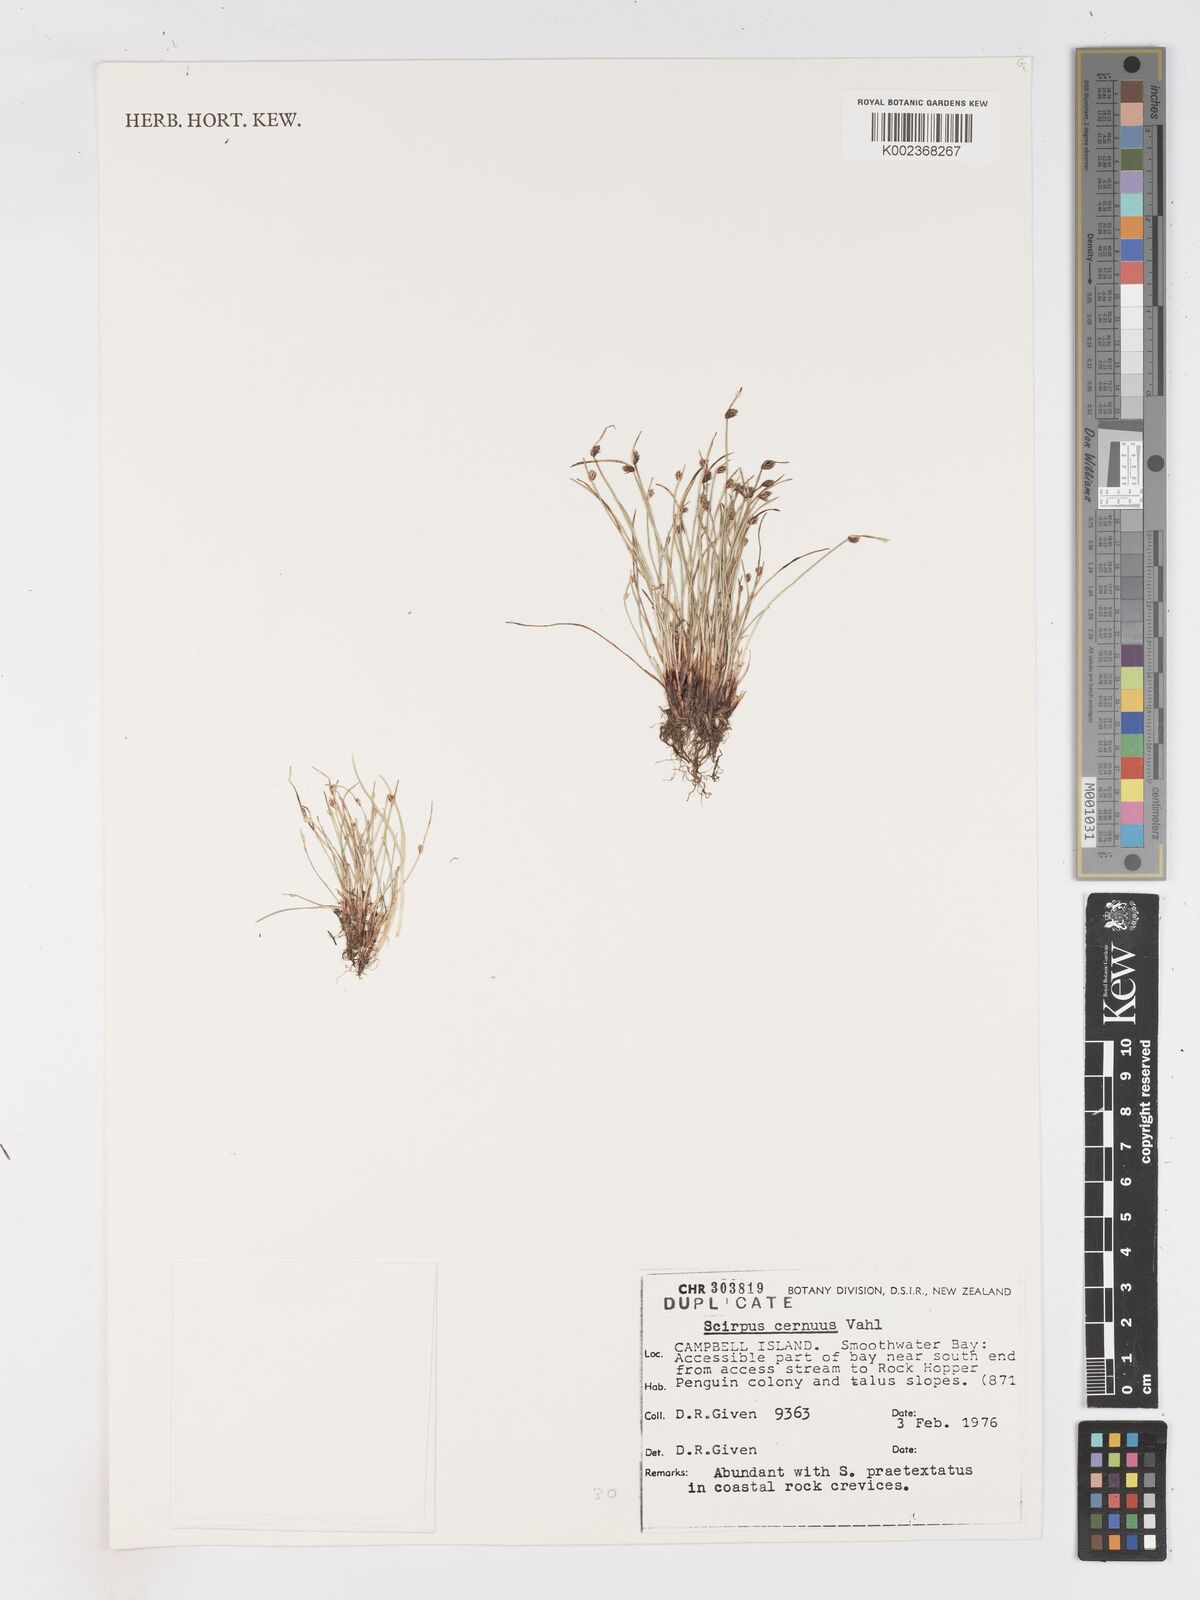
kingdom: Plantae
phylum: Tracheophyta
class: Liliopsida
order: Poales
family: Cyperaceae
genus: Isolepis
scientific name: Isolepis cernua
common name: Slender club-rush
